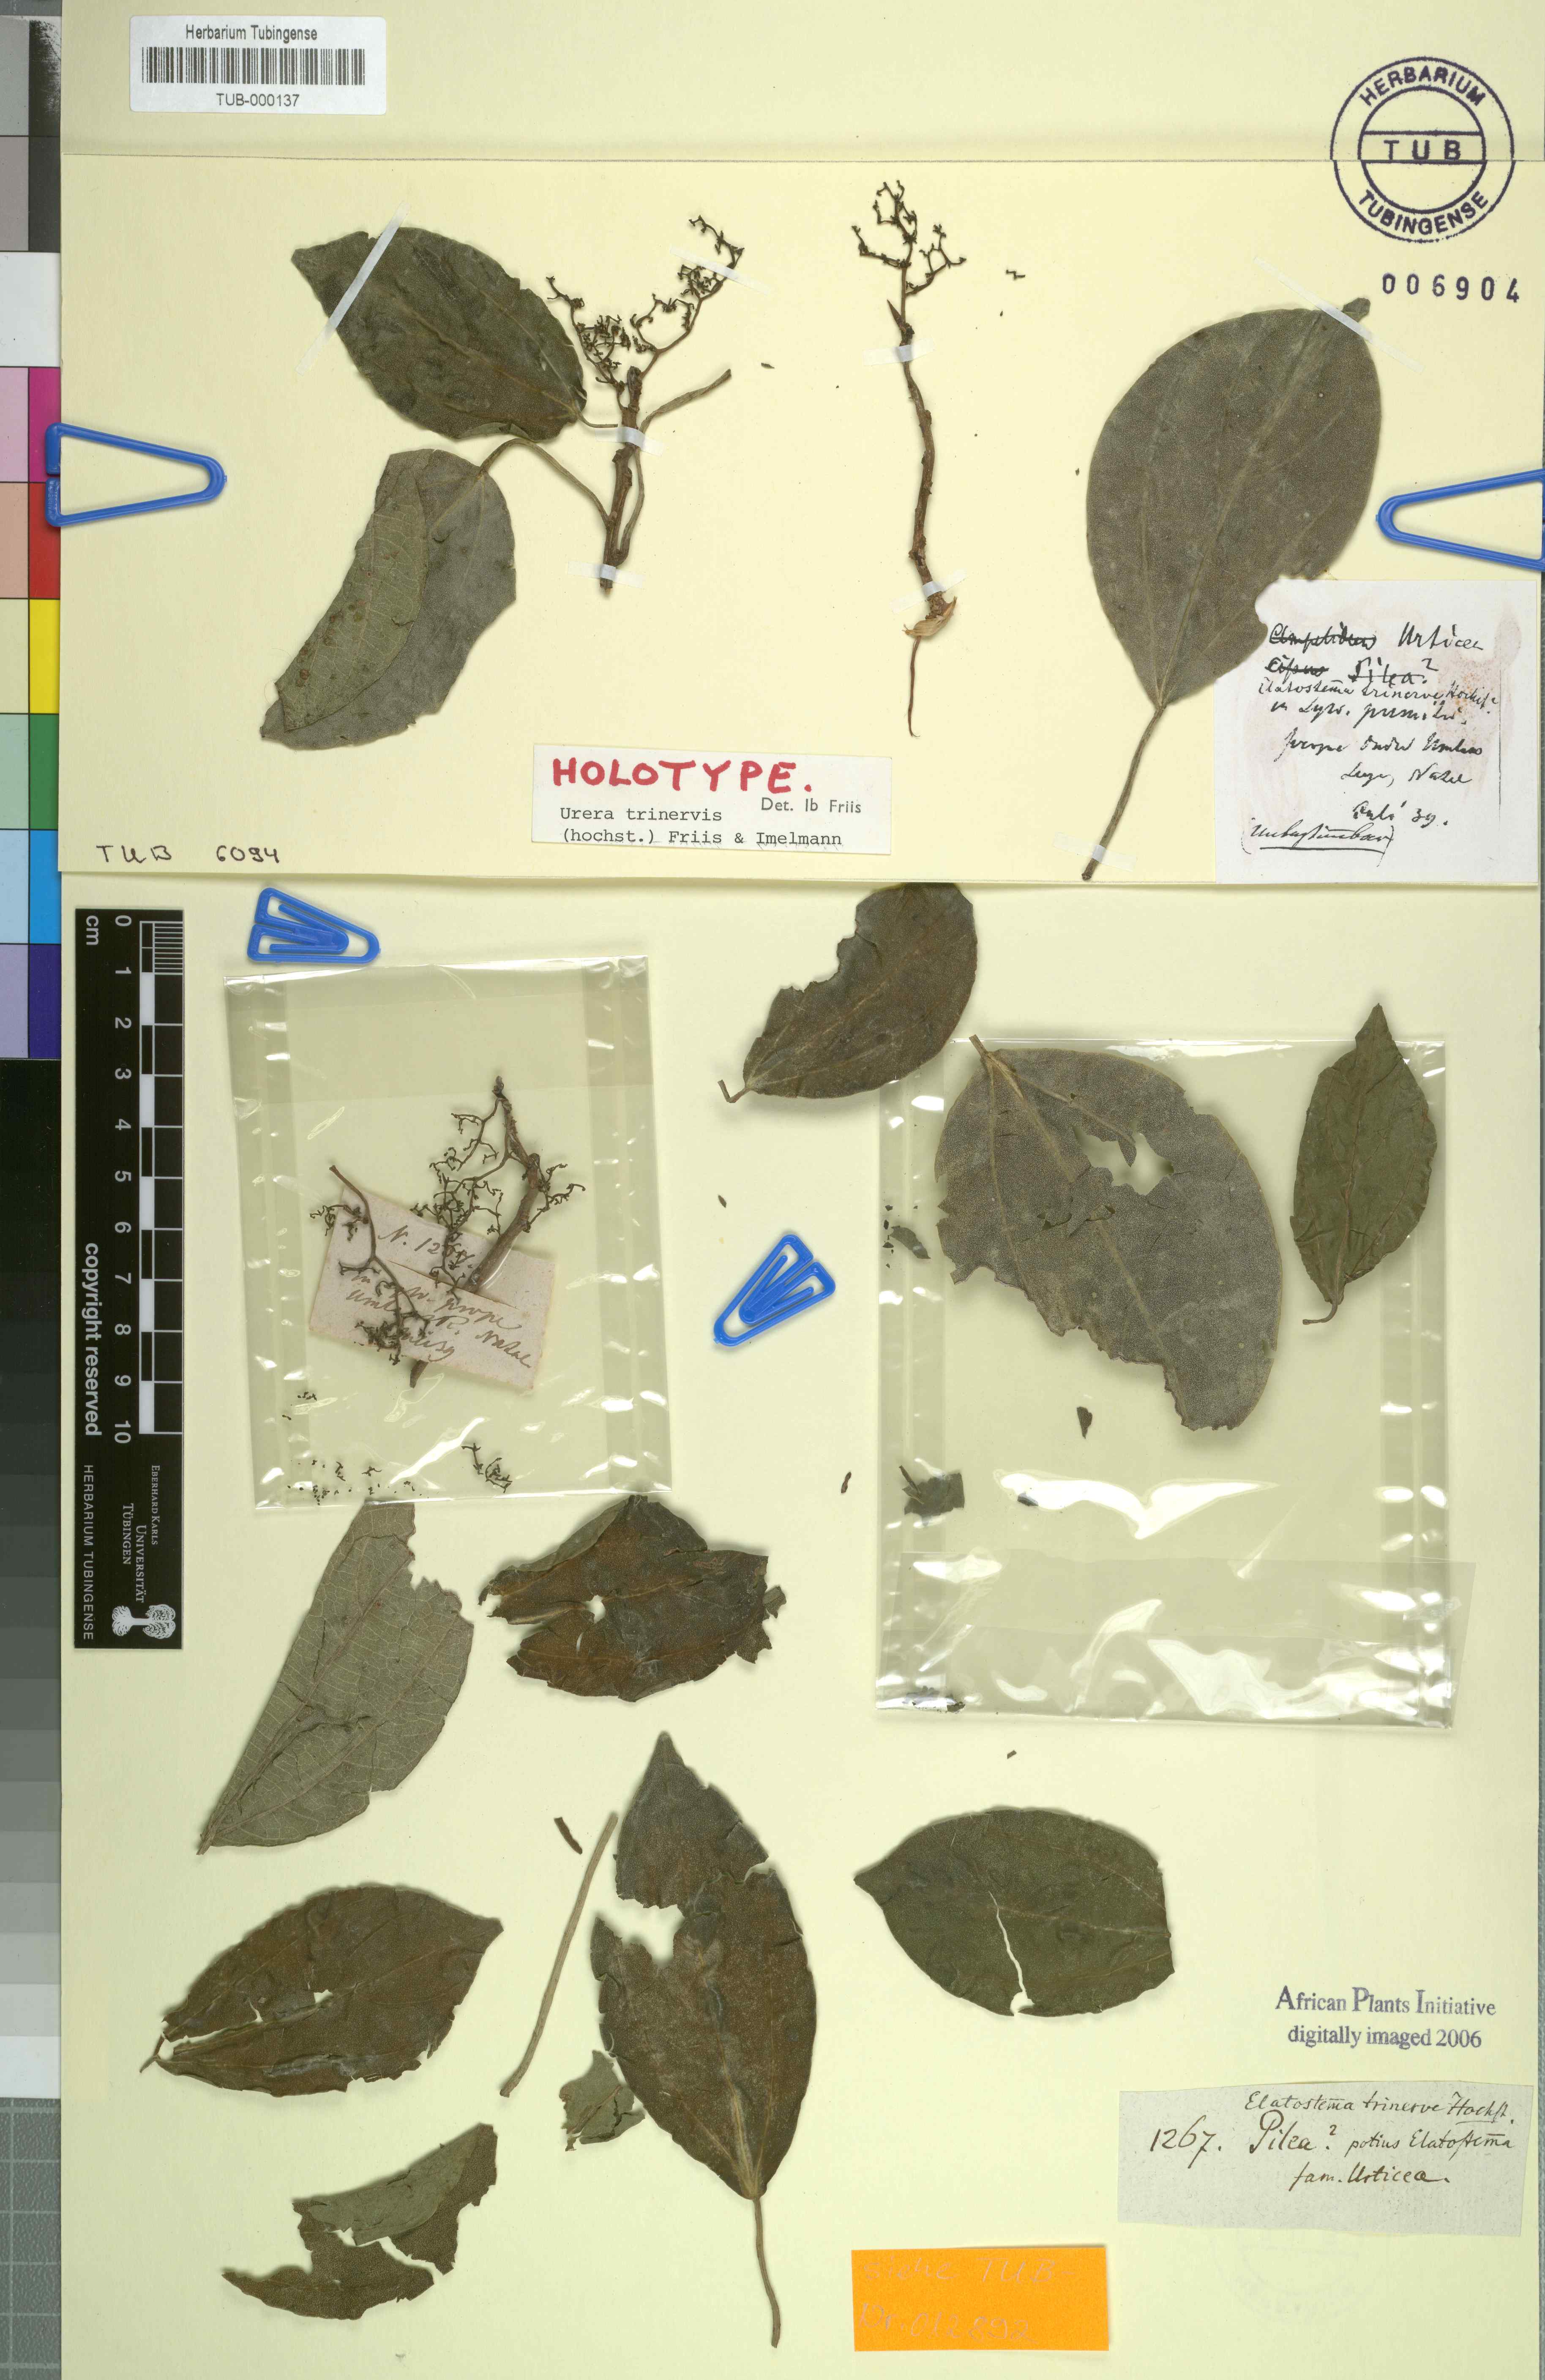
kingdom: Plantae
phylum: Tracheophyta
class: Magnoliopsida
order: Rosales
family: Urticaceae
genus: Scepocarpus
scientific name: Scepocarpus trinervis
